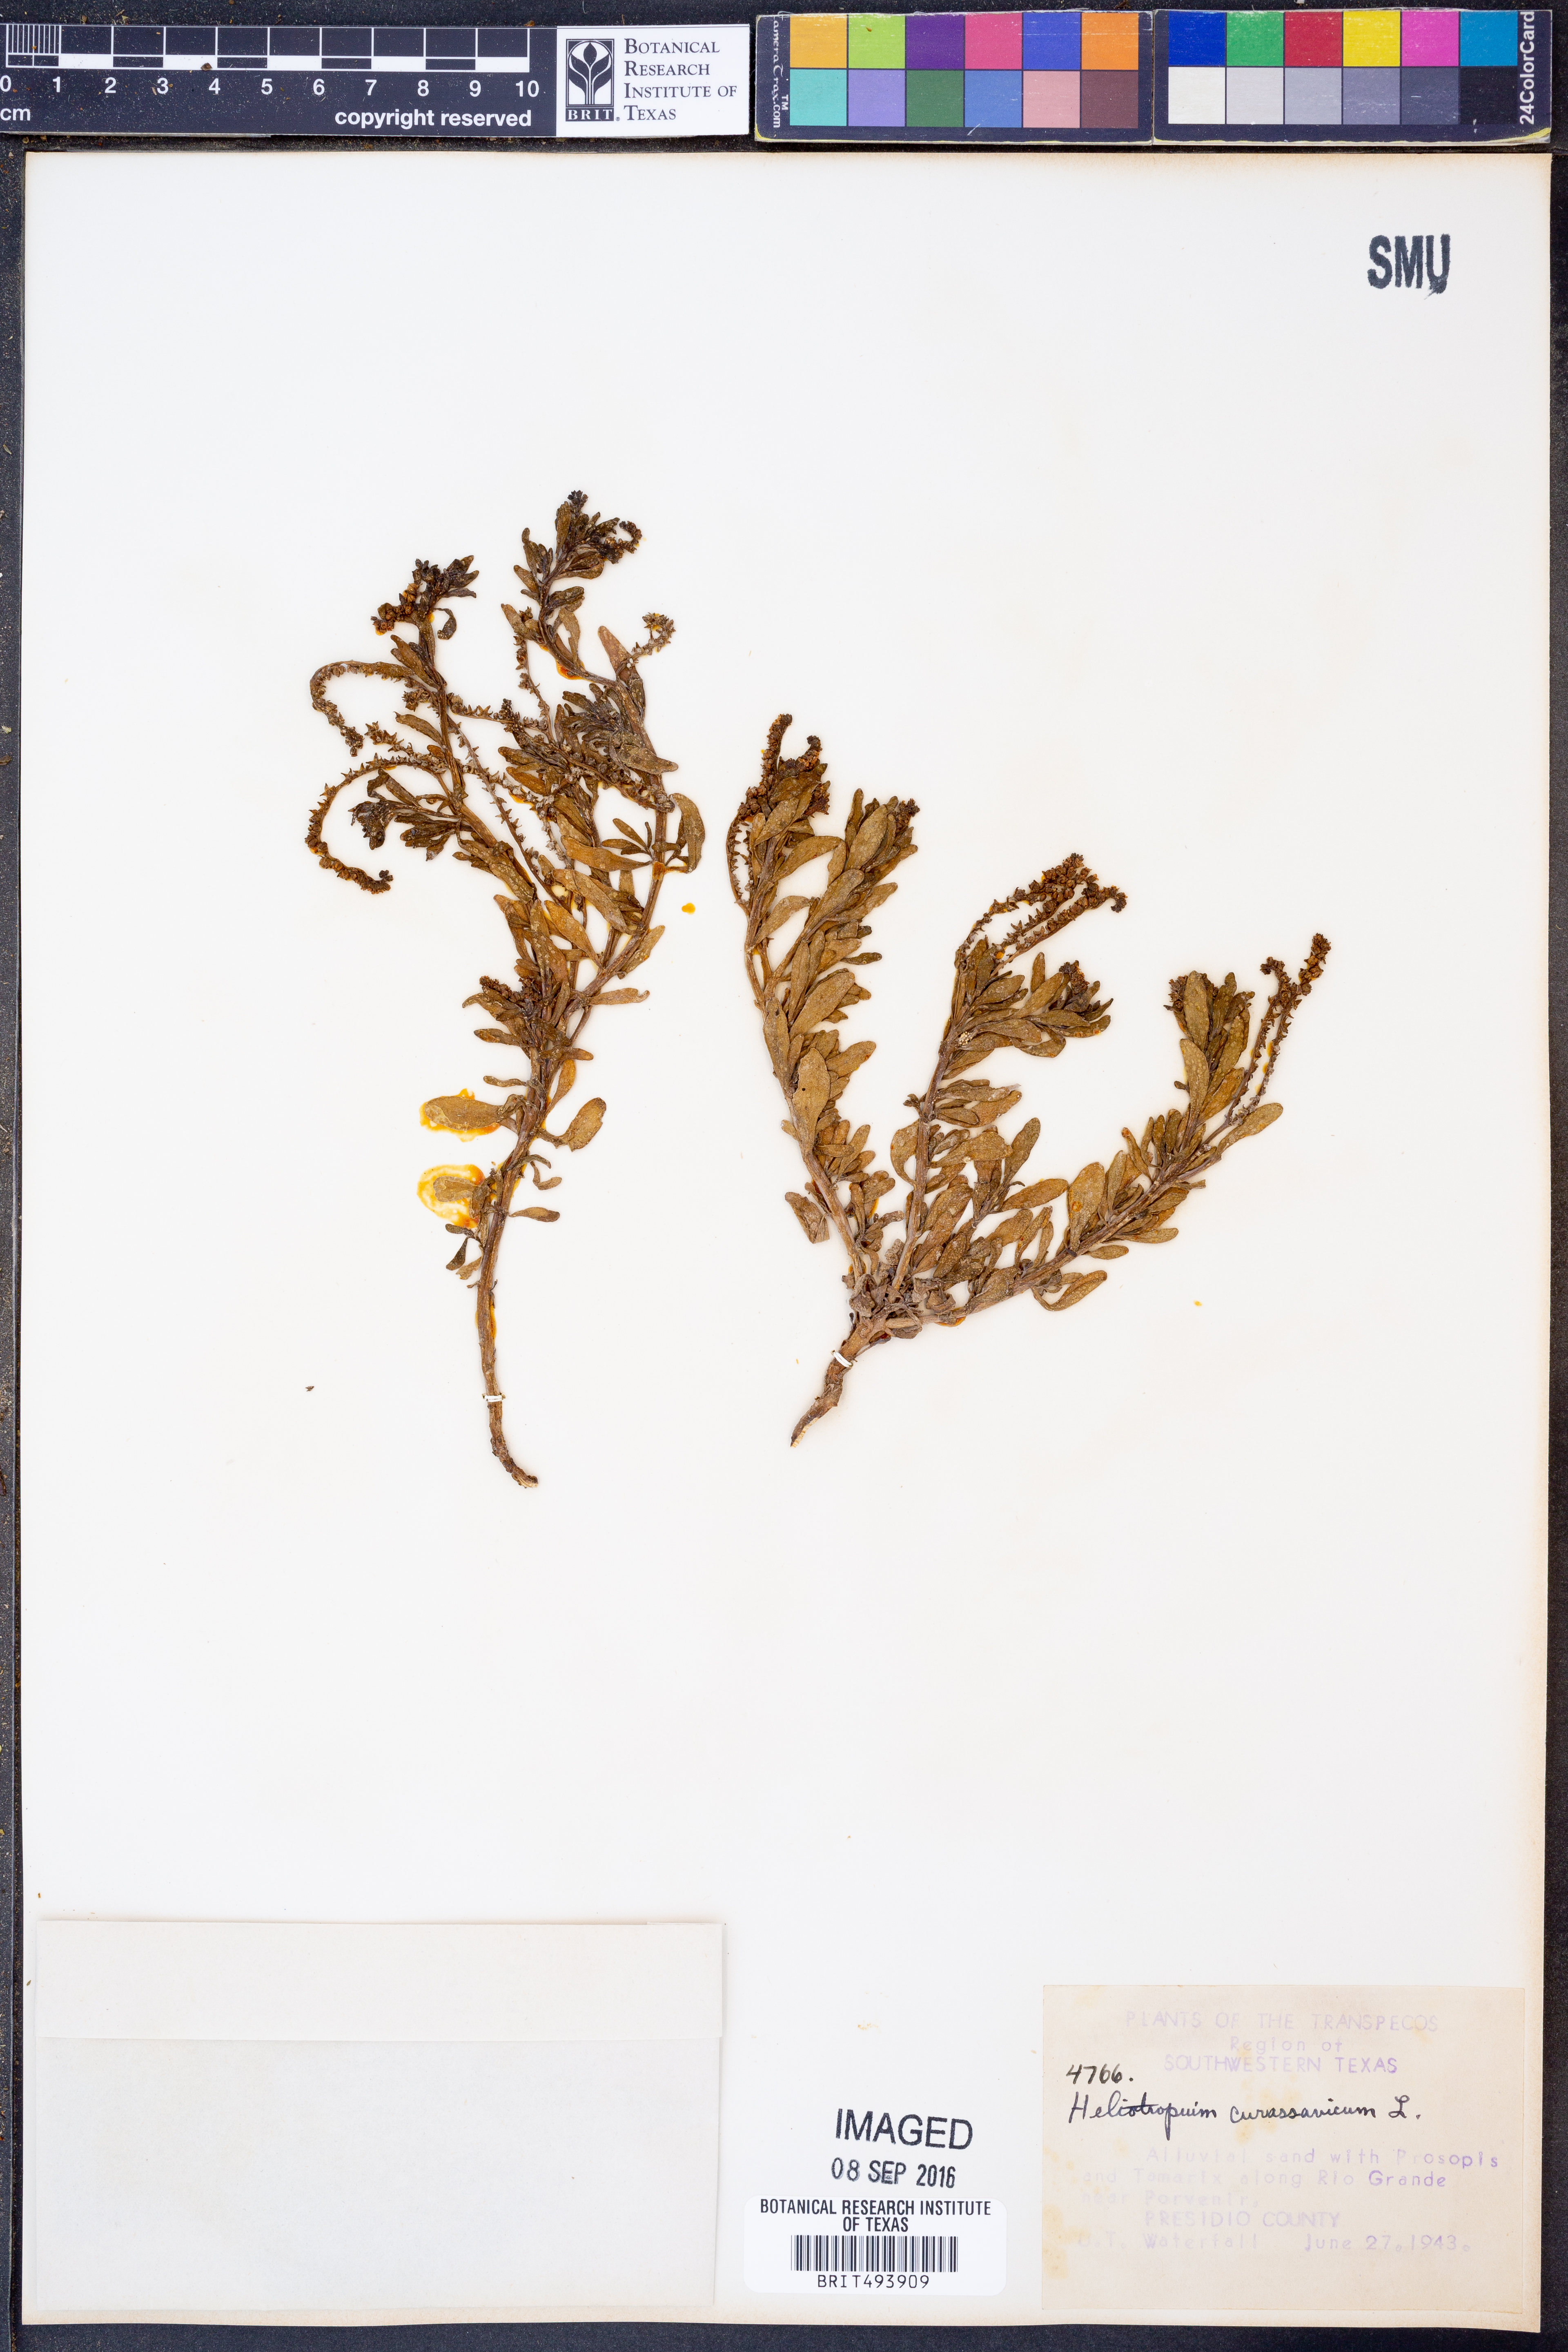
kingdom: Plantae
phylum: Tracheophyta
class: Magnoliopsida
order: Boraginales
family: Heliotropiaceae
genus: Heliotropium
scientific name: Heliotropium curassavicum
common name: Seaside heliotrope
